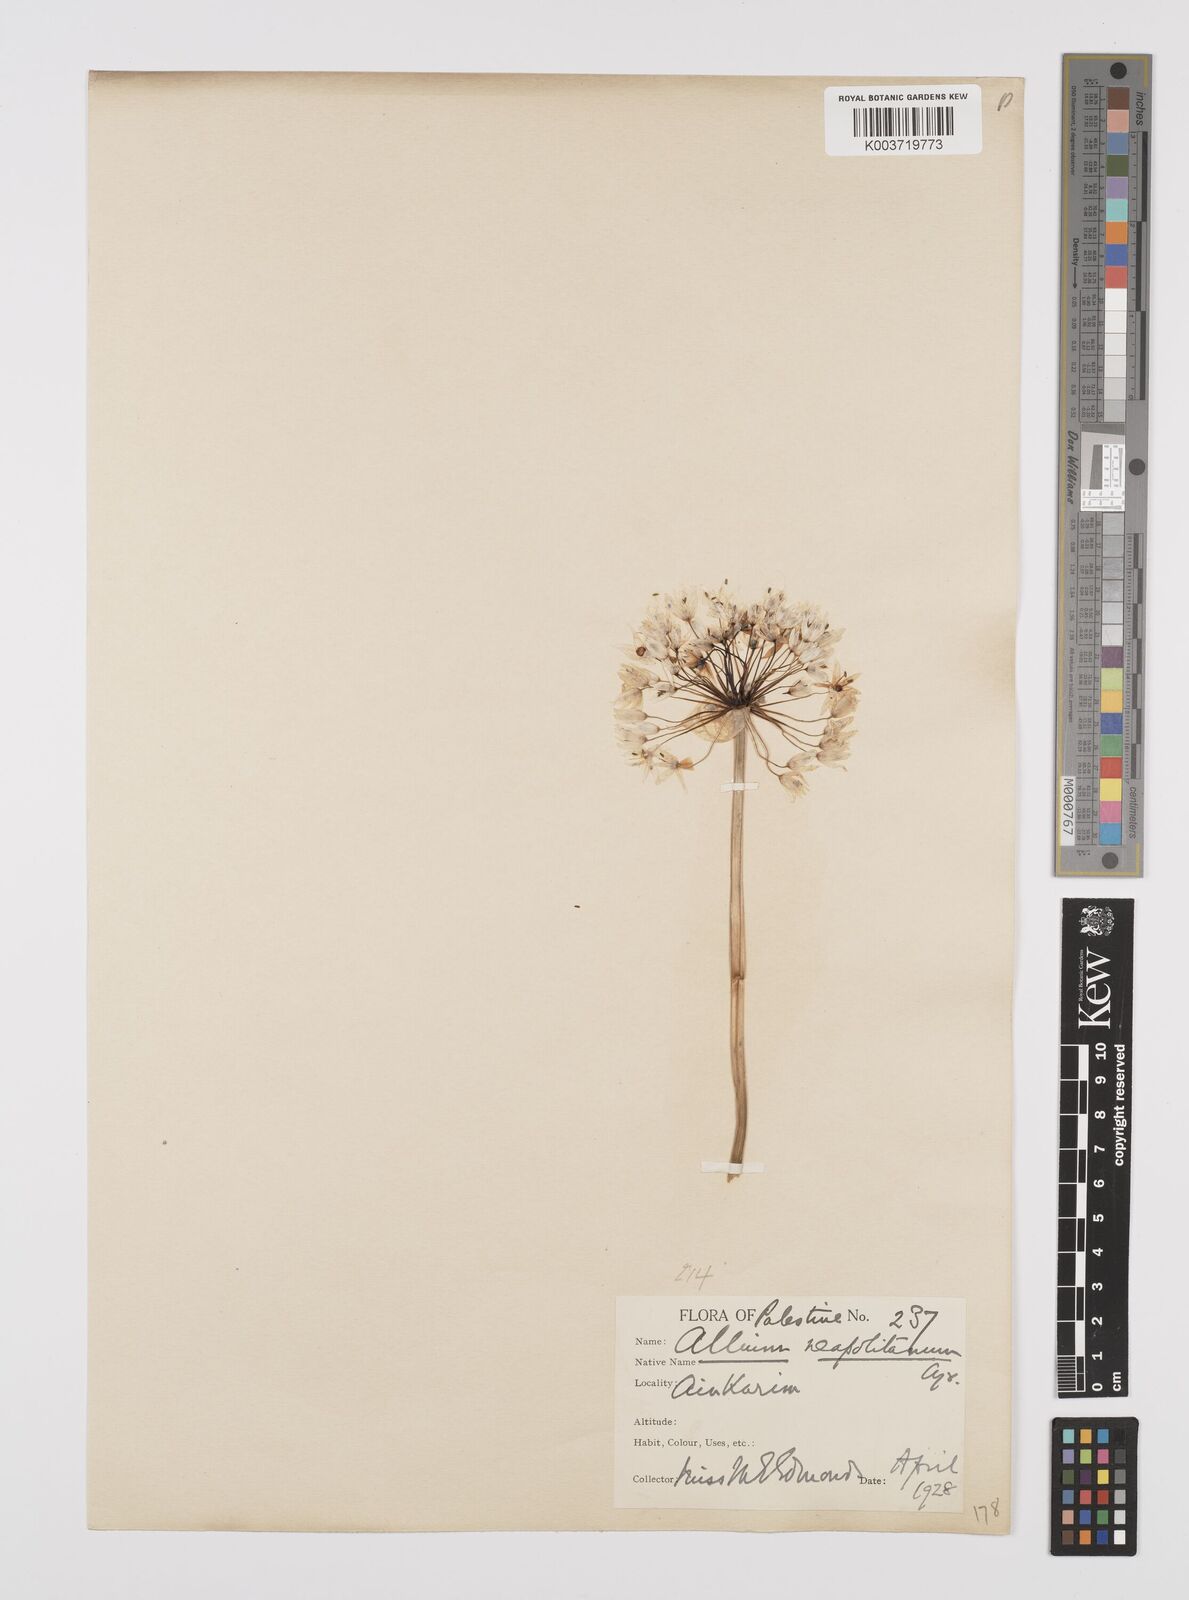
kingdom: Plantae
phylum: Tracheophyta
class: Liliopsida
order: Asparagales
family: Amaryllidaceae
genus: Allium
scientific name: Allium neapolitanum
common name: Neapolitan garlic
